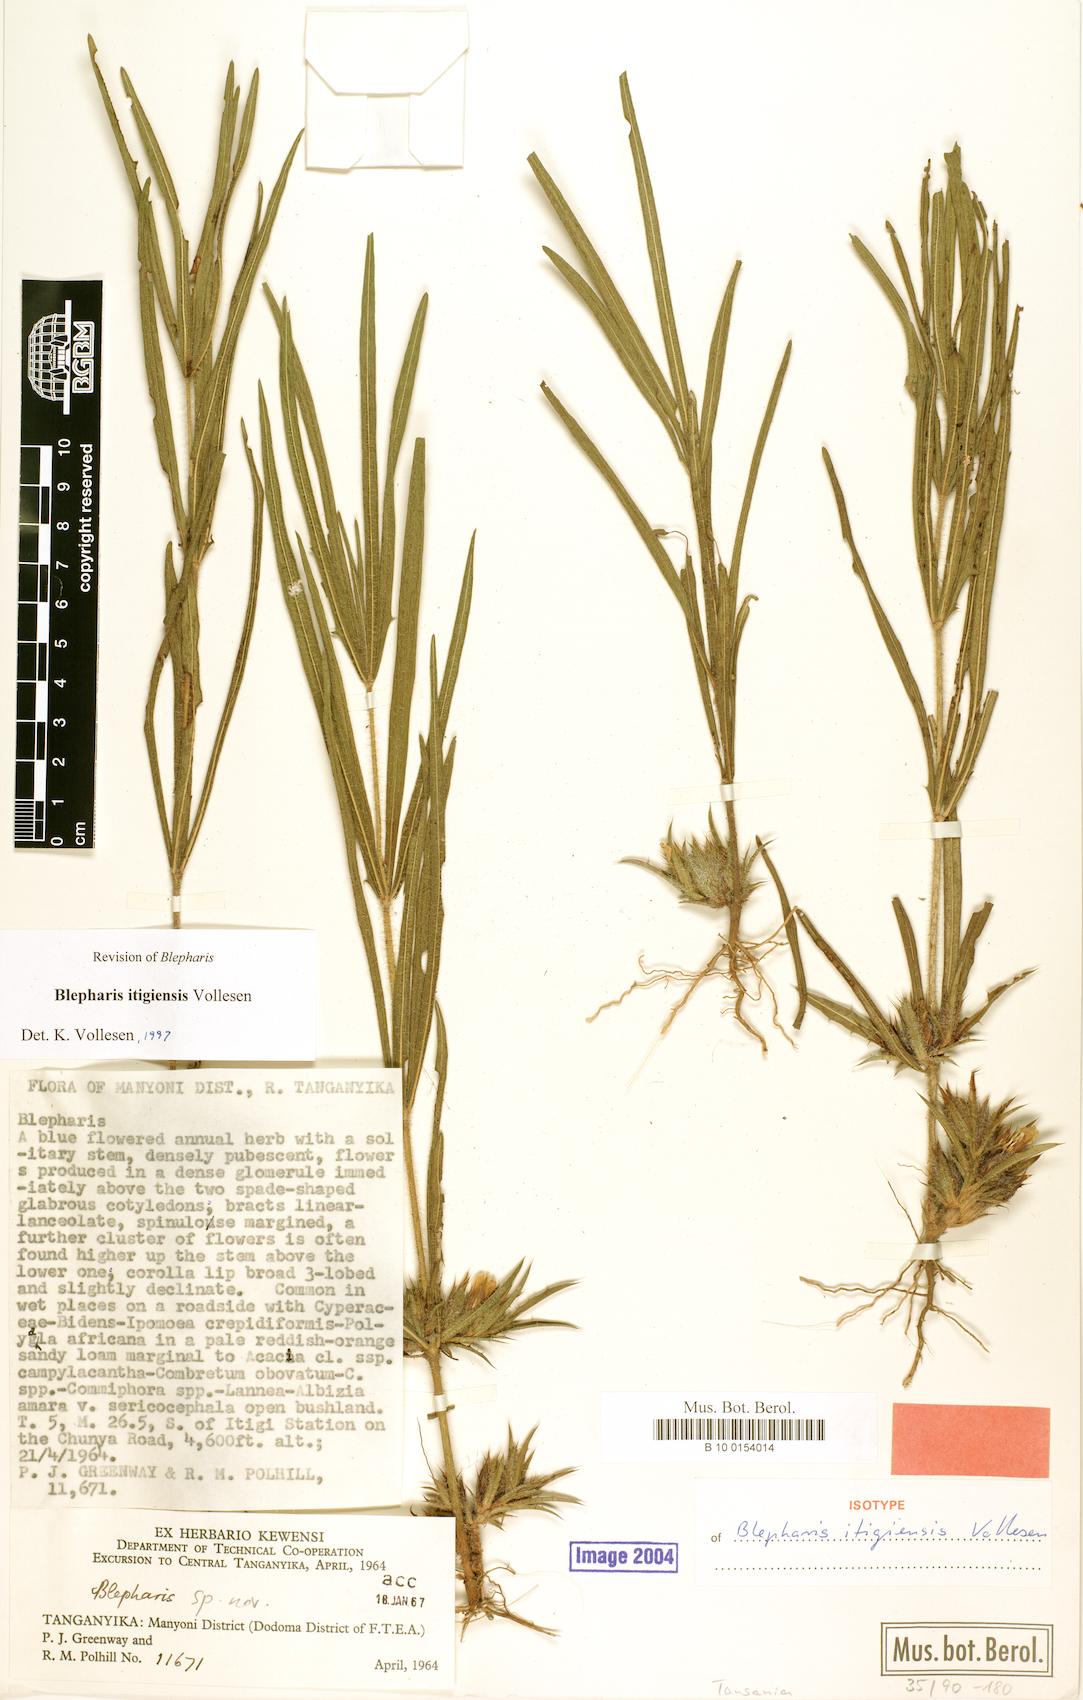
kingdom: Plantae
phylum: Tracheophyta
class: Magnoliopsida
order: Lamiales
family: Acanthaceae
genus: Blepharis
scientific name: Blepharis itigiensis
